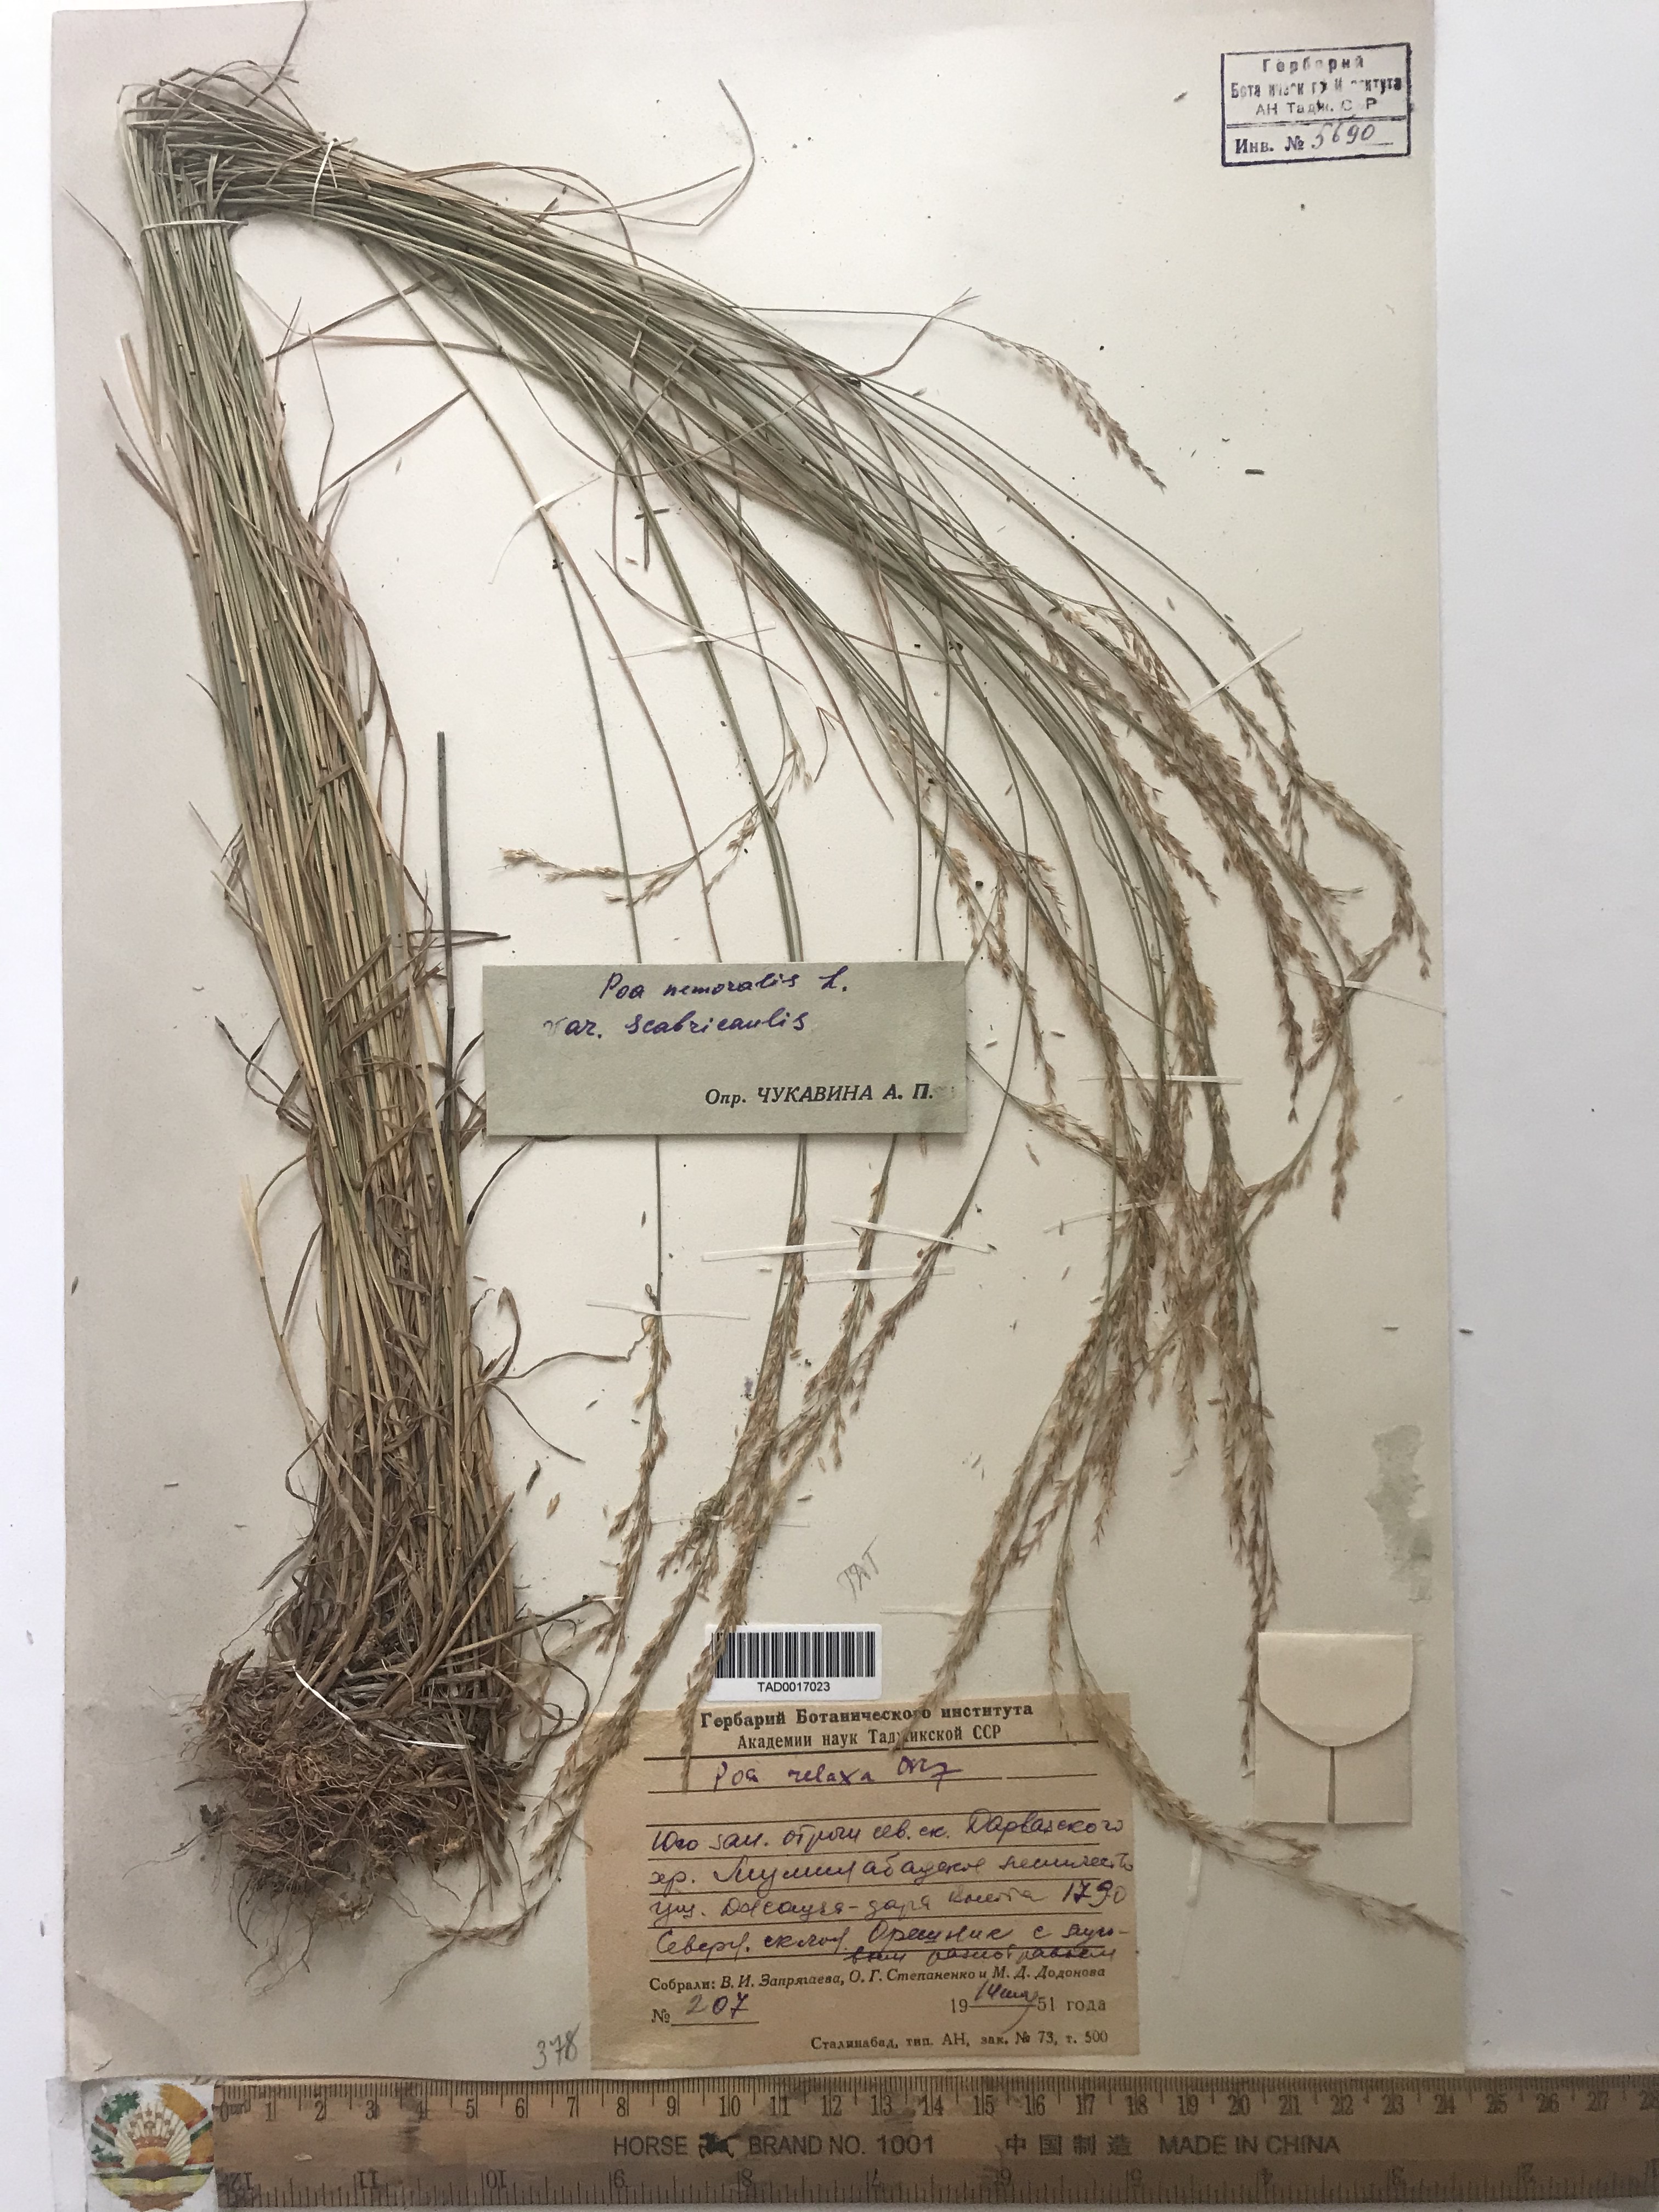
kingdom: Plantae
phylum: Tracheophyta
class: Liliopsida
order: Poales
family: Poaceae
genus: Poa
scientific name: Poa versicolor
